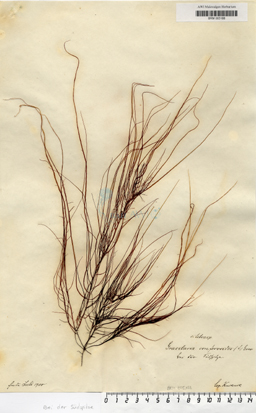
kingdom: Plantae
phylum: Rhodophyta
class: Florideophyceae
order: Gracilariales
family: Gracilariaceae
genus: Gracilaria
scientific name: Gracilaria gracilis
